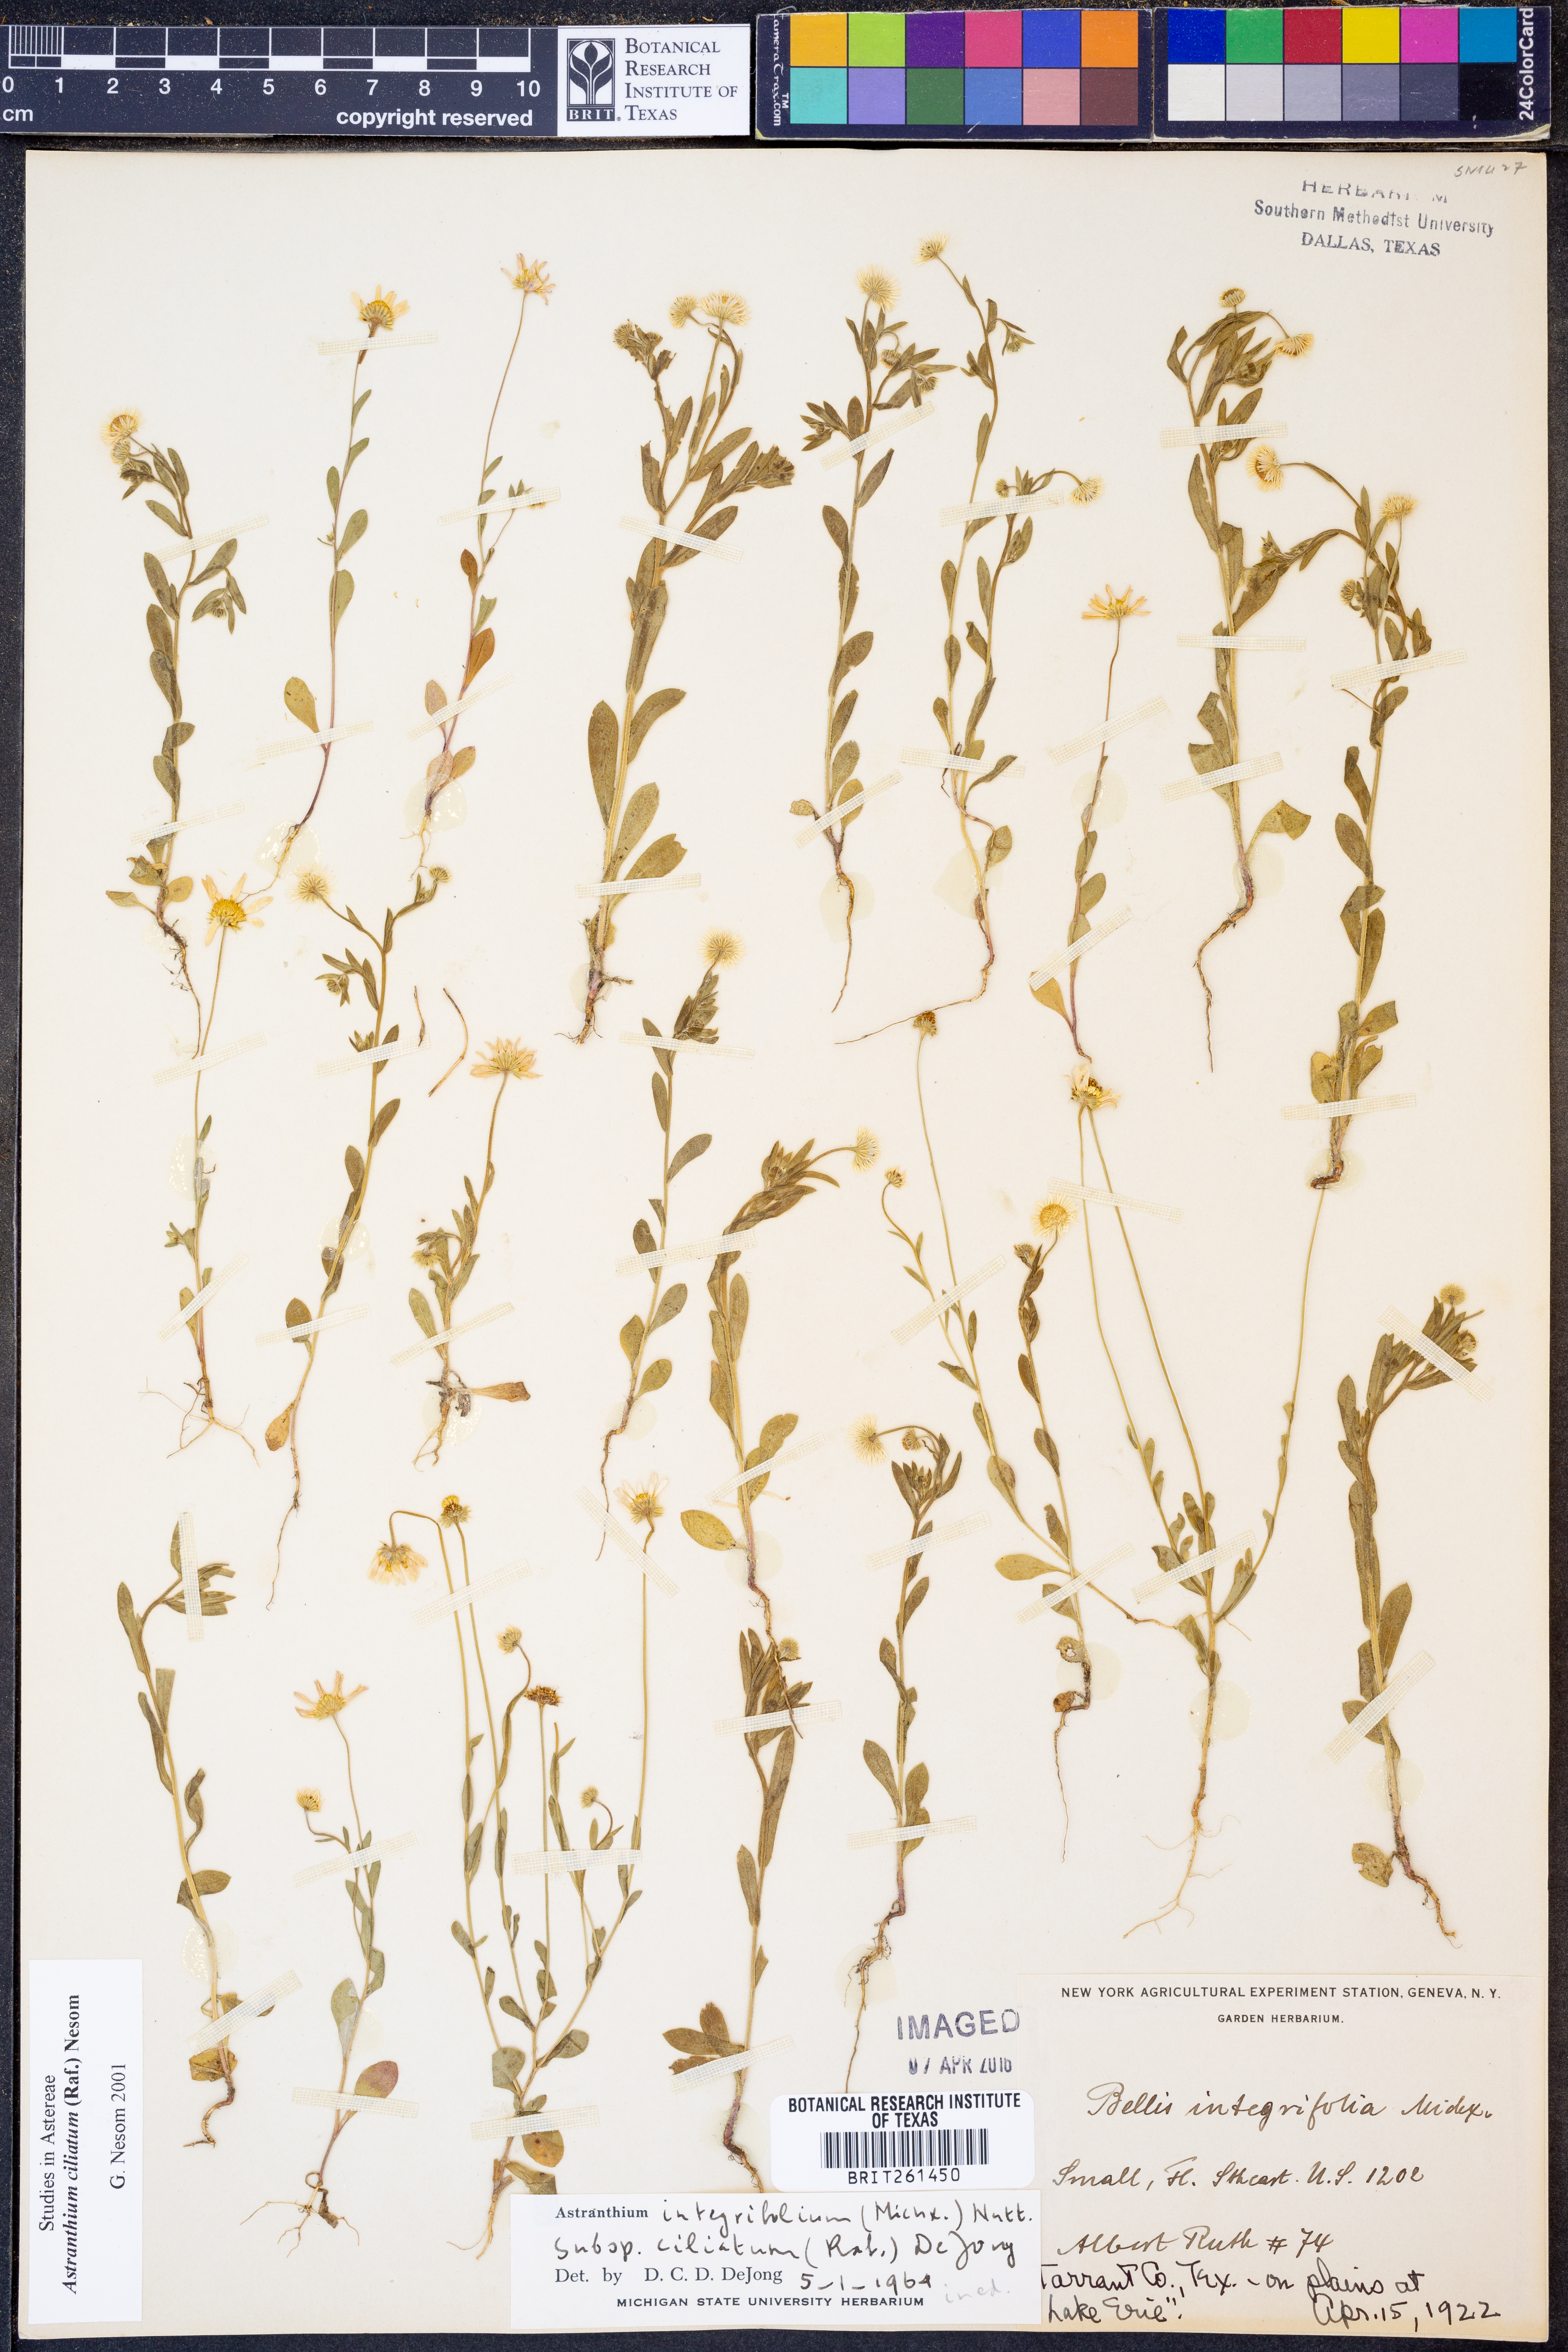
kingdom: Plantae
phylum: Tracheophyta
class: Magnoliopsida
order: Asterales
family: Asteraceae
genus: Astranthium
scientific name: Astranthium ciliatum
